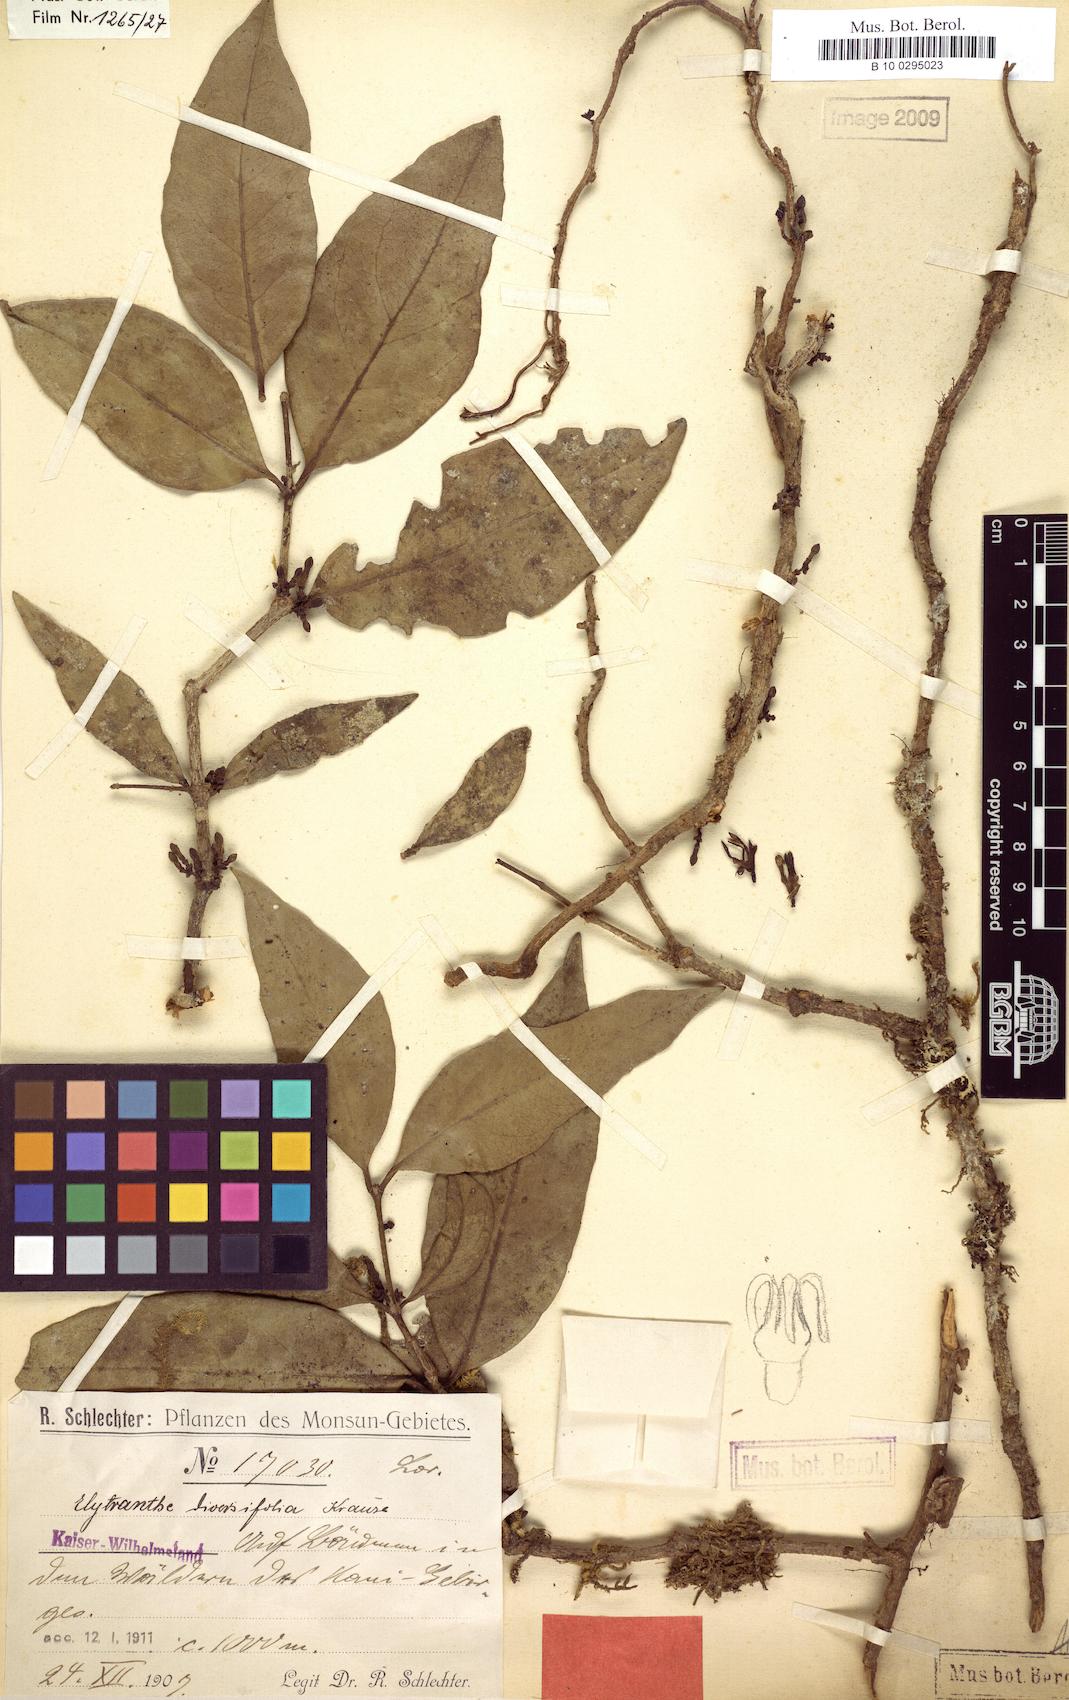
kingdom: Plantae
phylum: Tracheophyta
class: Magnoliopsida
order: Santalales
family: Loranthaceae
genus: Macrosolen
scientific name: Macrosolen cochinchinensis
